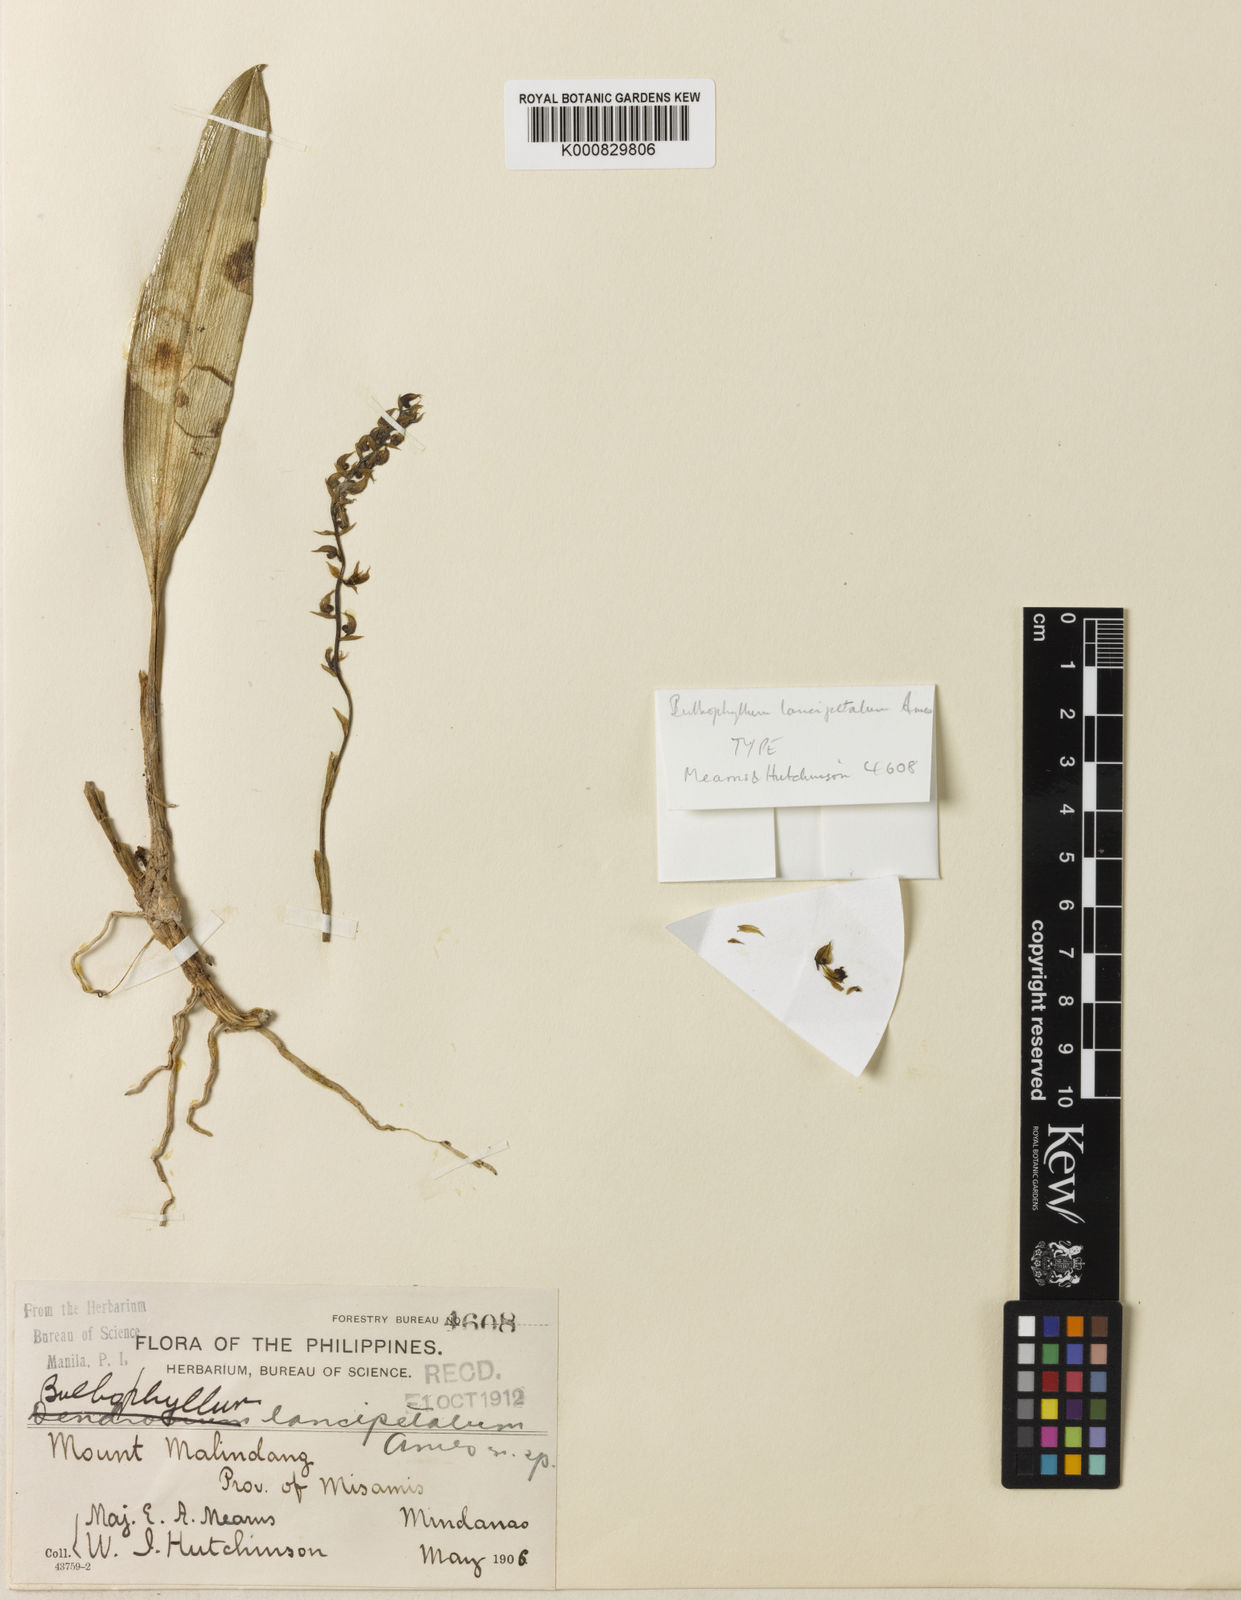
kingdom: Plantae
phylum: Tracheophyta
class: Liliopsida
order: Asparagales
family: Orchidaceae
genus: Bulbophyllum
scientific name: Bulbophyllum lancipetalum
